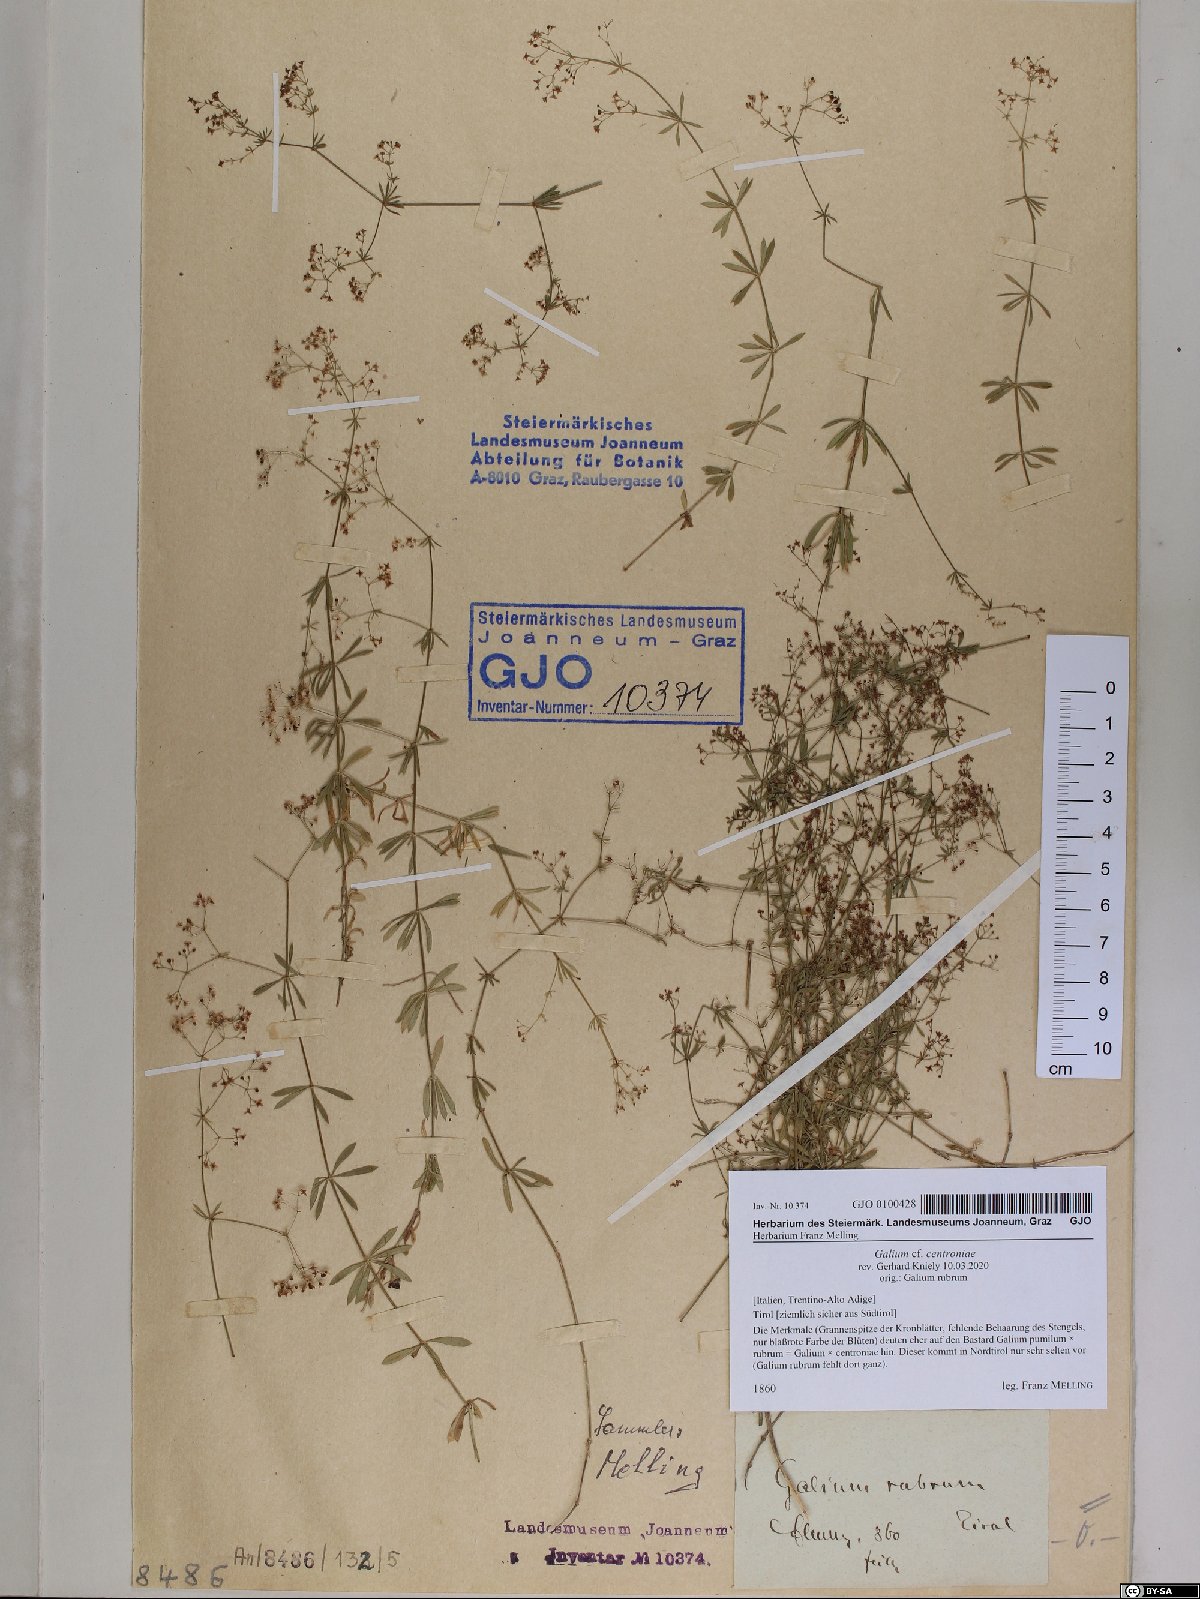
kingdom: Plantae
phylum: Tracheophyta
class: Magnoliopsida
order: Gentianales
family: Rubiaceae
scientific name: Rubiaceae
